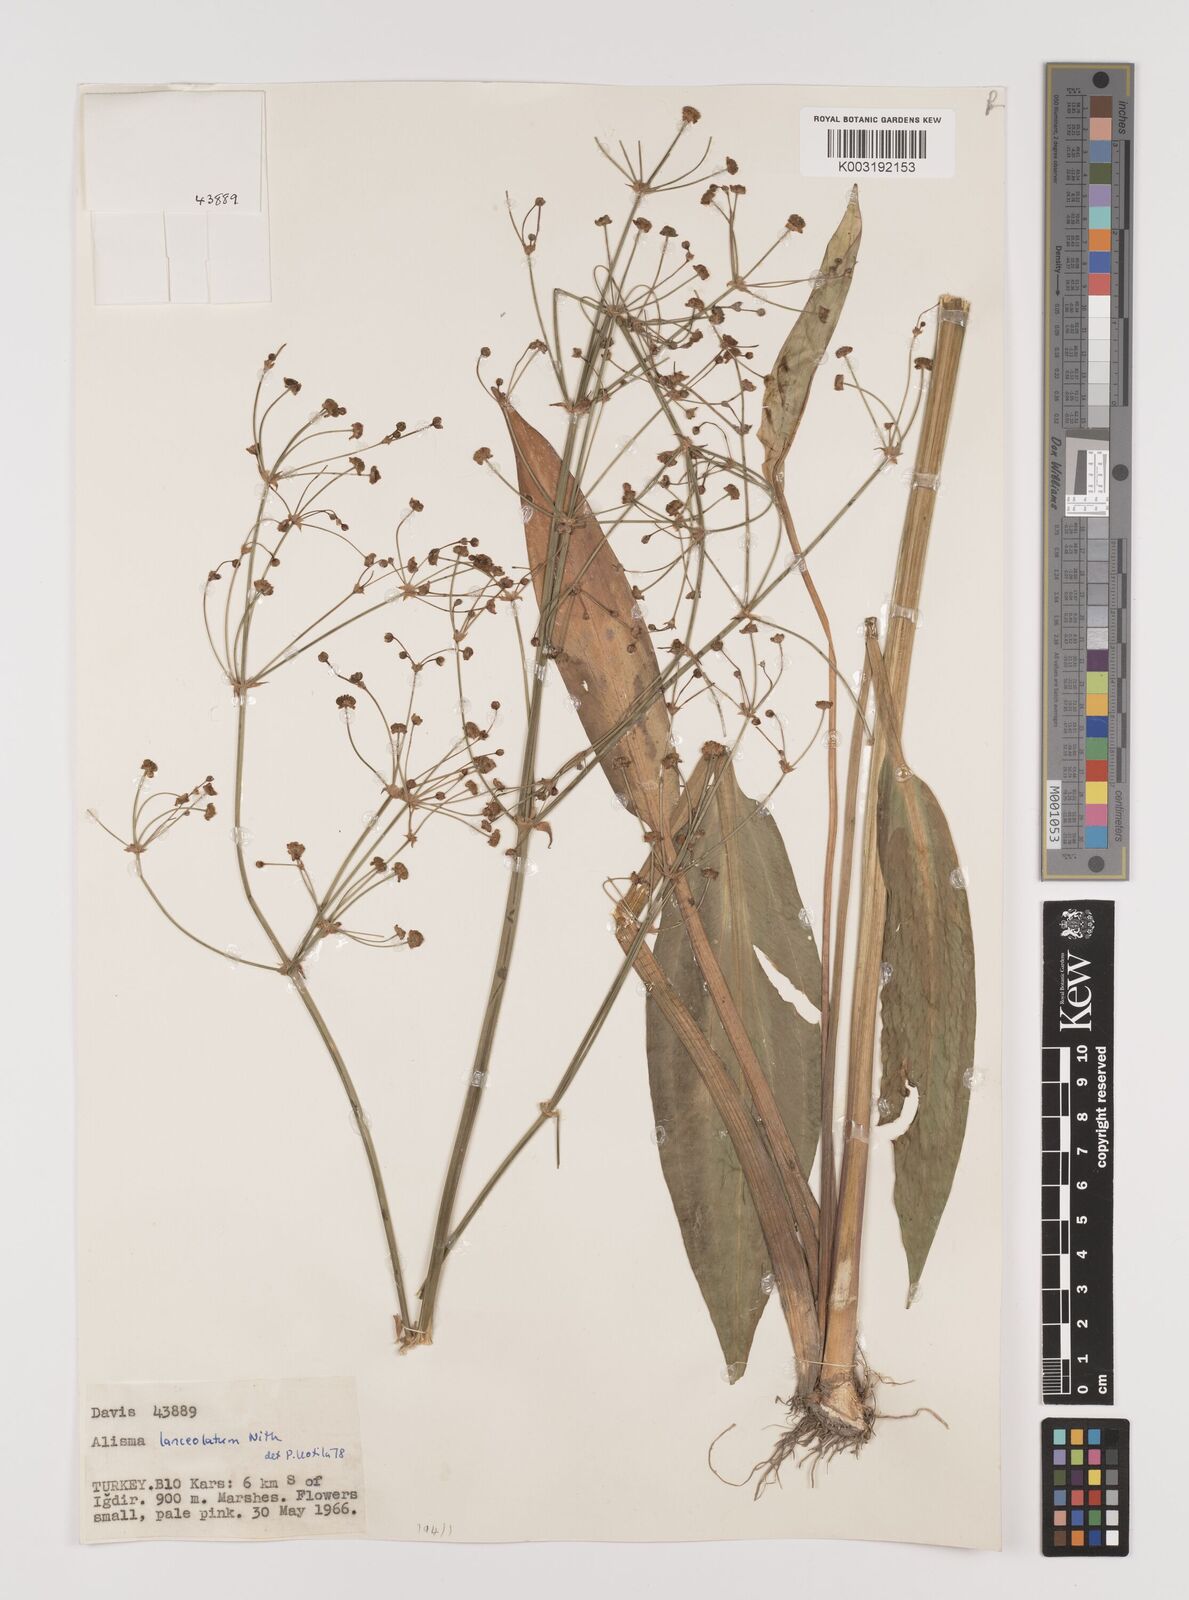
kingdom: Plantae
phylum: Tracheophyta
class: Liliopsida
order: Alismatales
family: Alismataceae
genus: Alisma
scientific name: Alisma lanceolatum
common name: Narrow-leaved water-plantain
